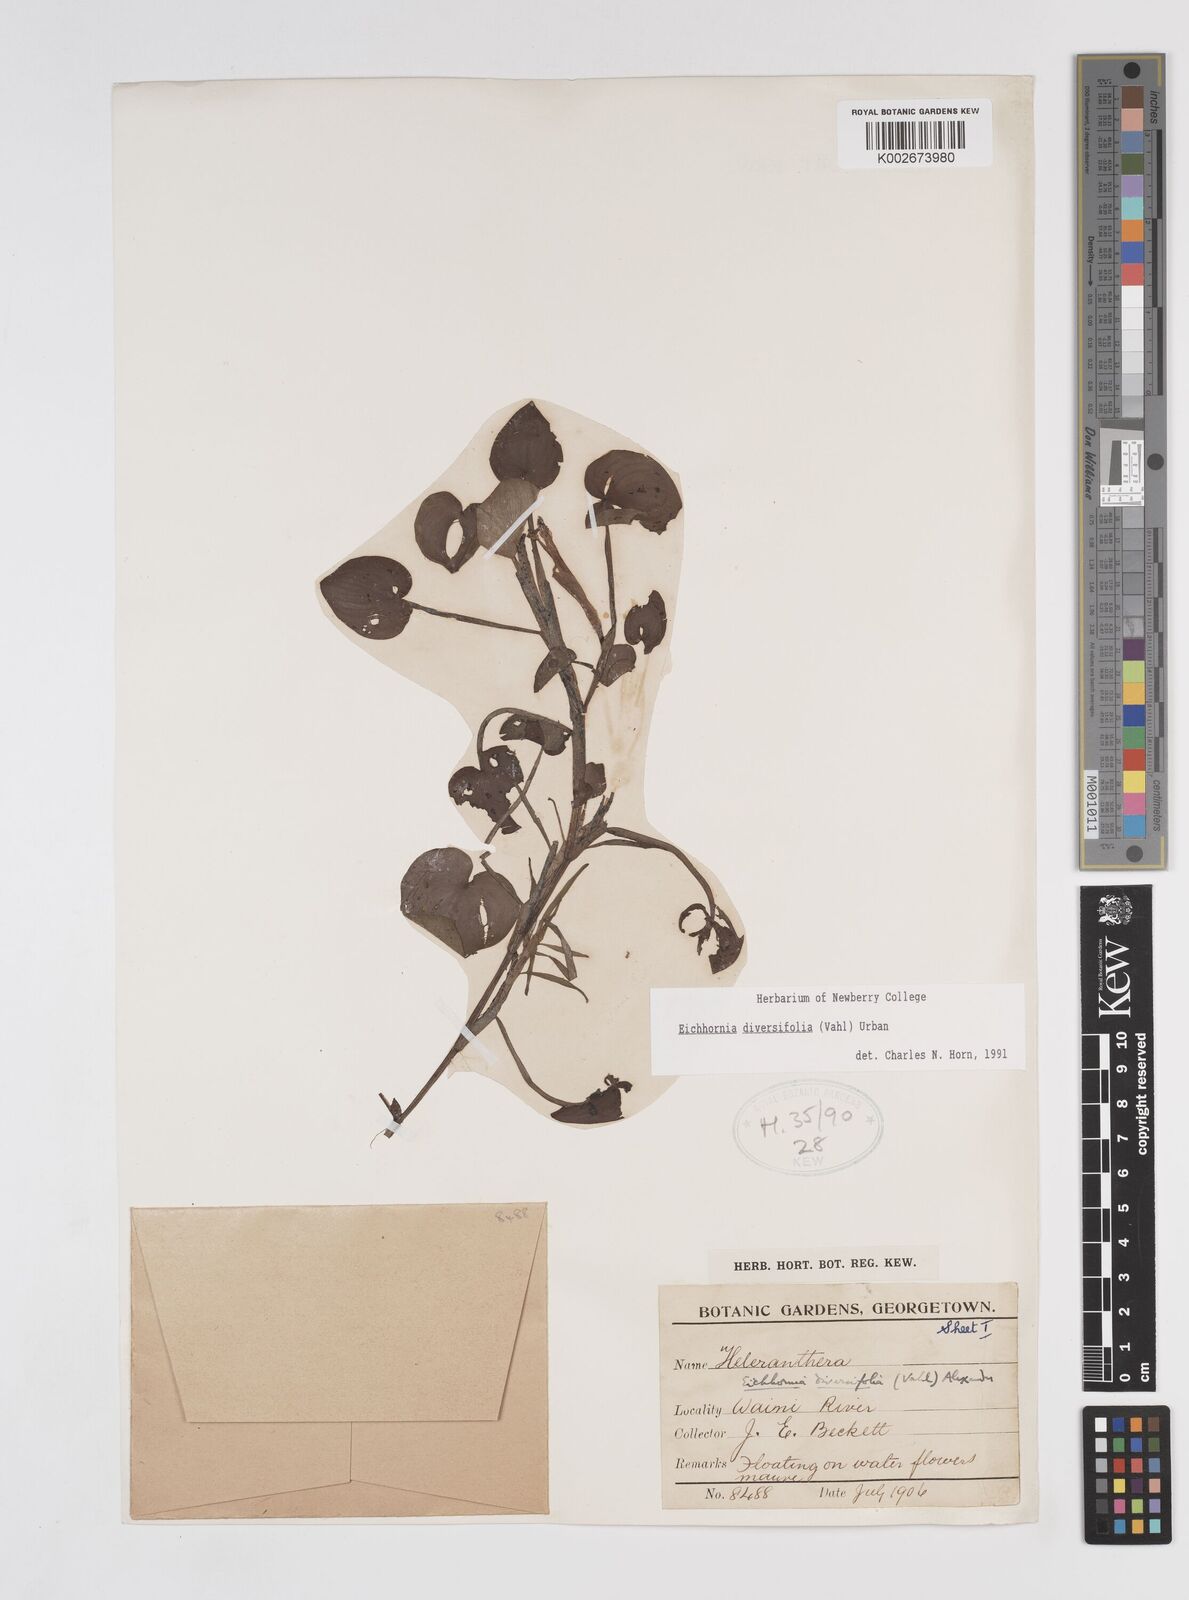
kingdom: Plantae
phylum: Tracheophyta
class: Liliopsida
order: Commelinales
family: Pontederiaceae
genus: Pontederia
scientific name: Pontederia diversifolia
